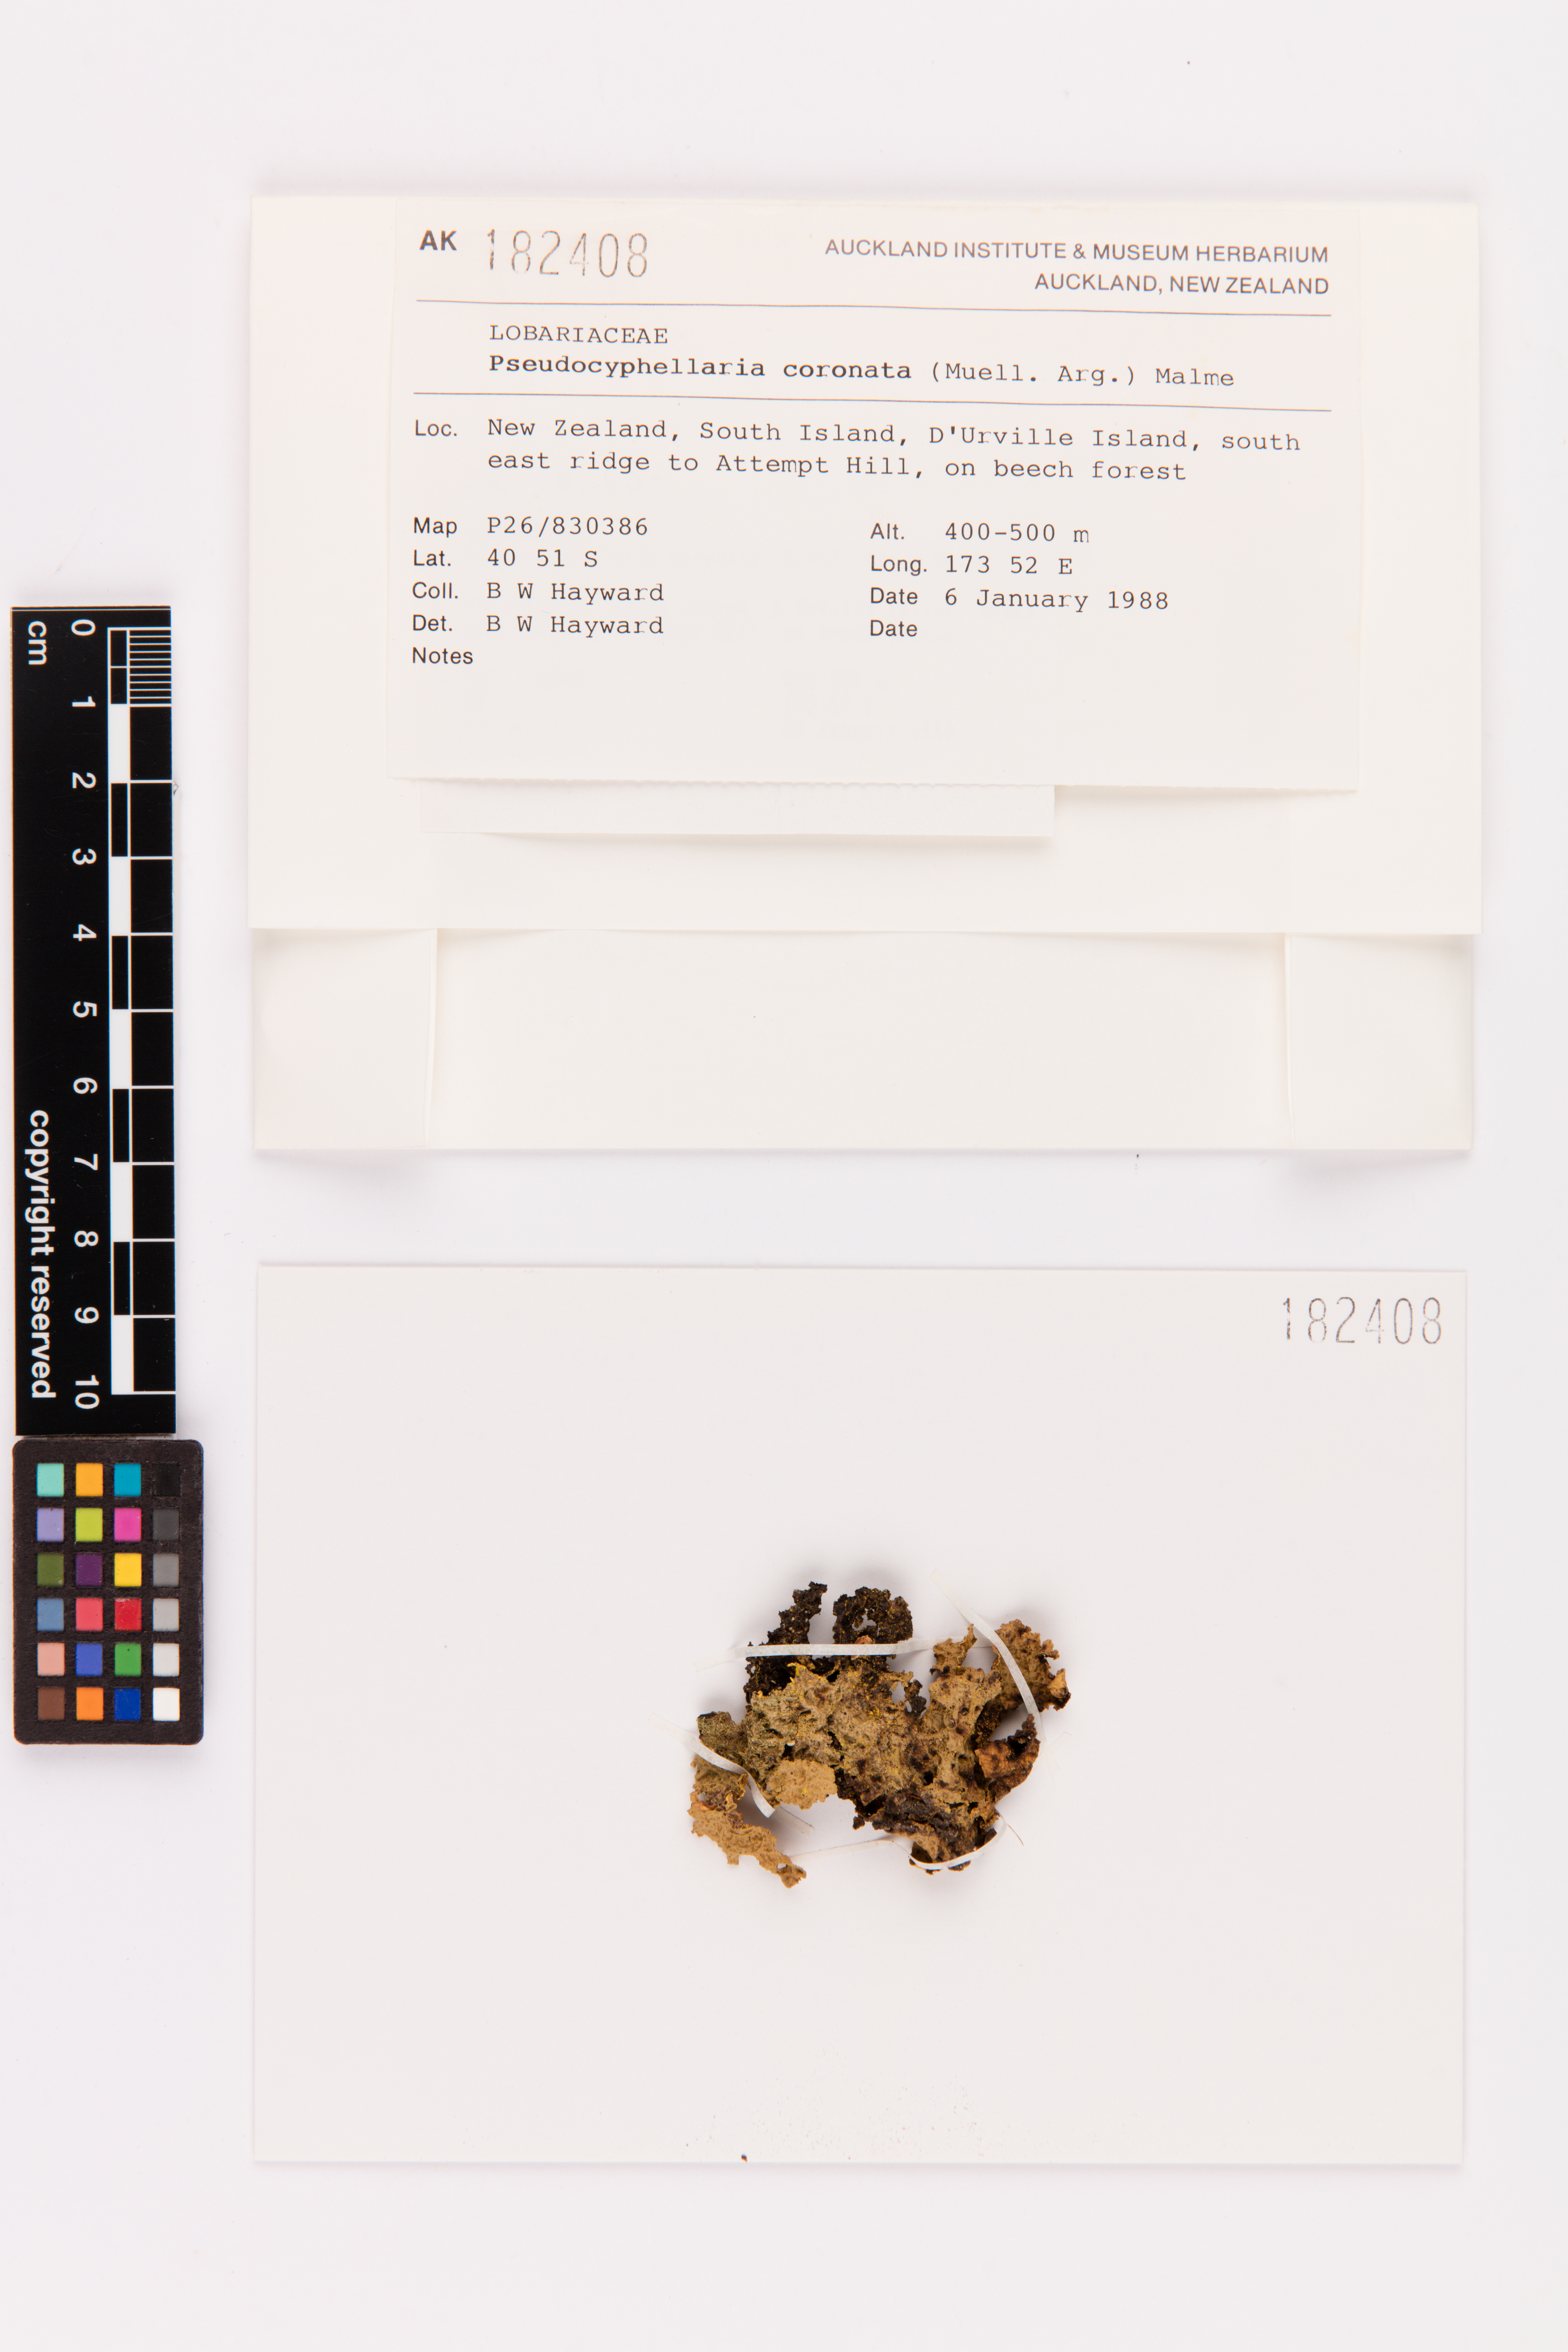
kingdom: Fungi
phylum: Ascomycota
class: Lecanoromycetes
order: Peltigerales
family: Lobariaceae
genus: Yarrumia
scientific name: Yarrumia coronata
